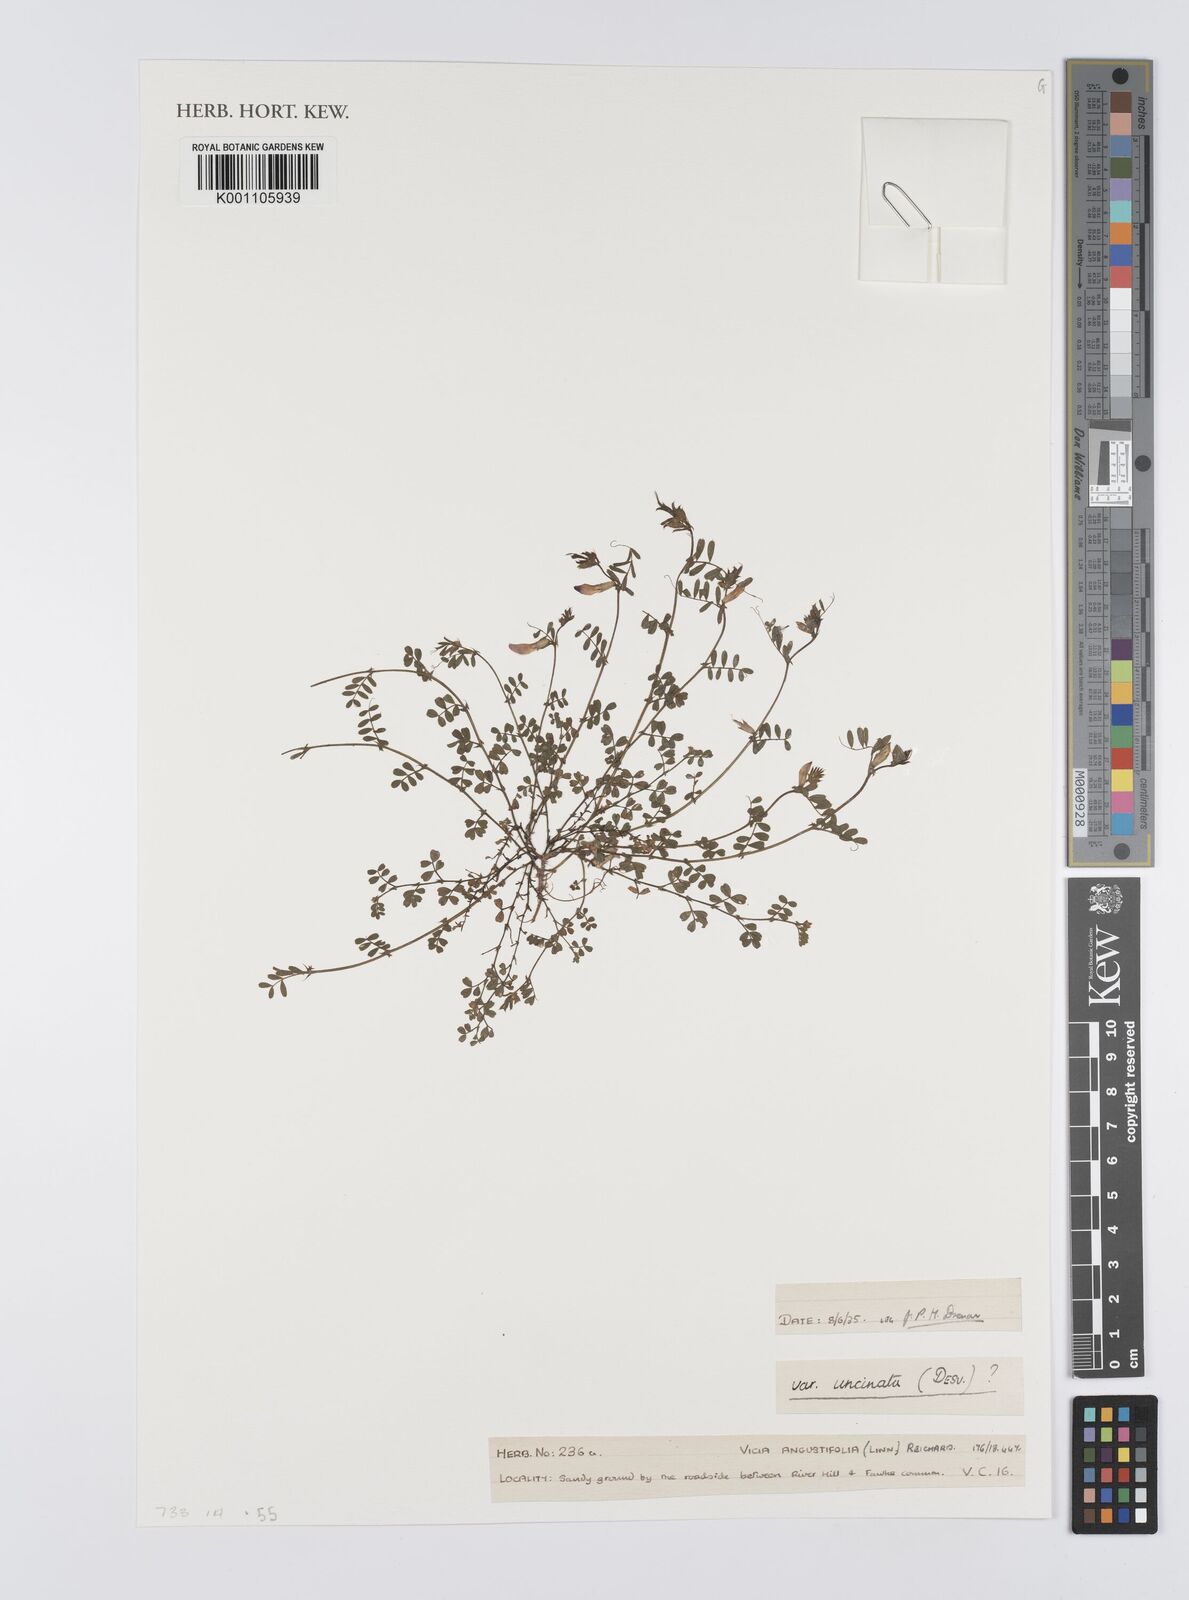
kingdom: Plantae
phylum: Tracheophyta
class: Magnoliopsida
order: Fabales
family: Fabaceae
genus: Vicia
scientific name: Vicia sativa
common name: Garden vetch
